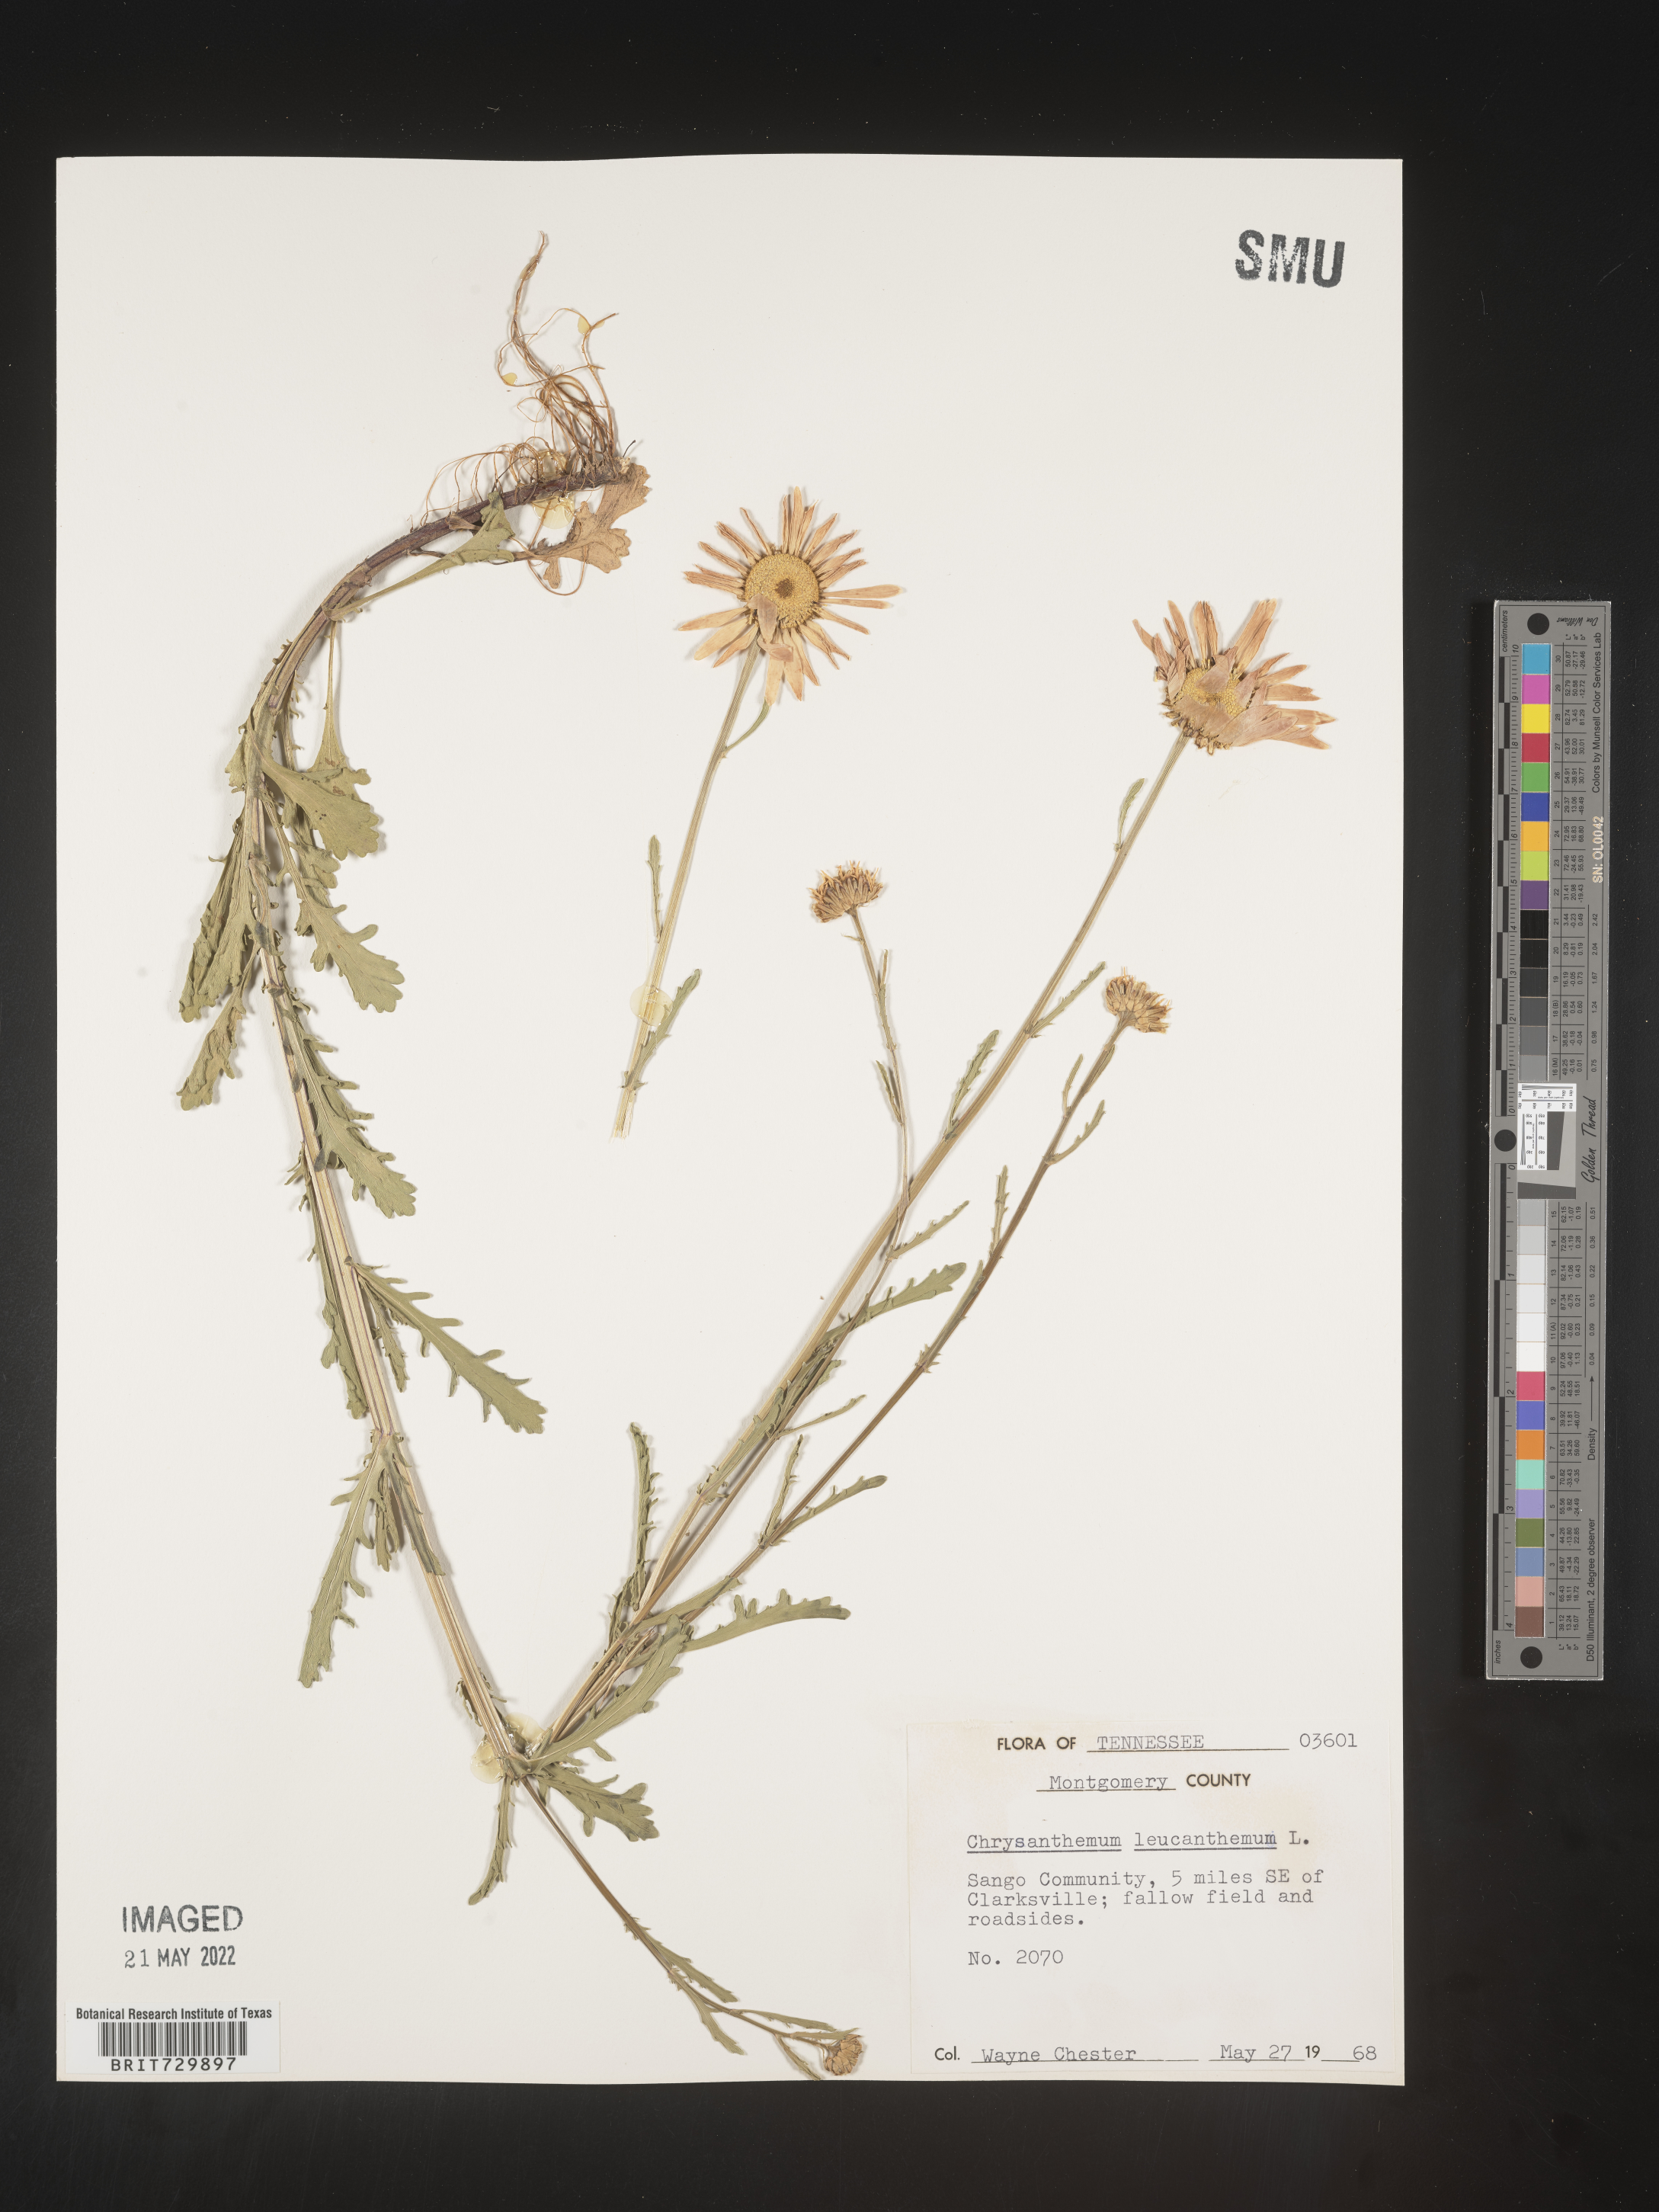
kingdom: Plantae
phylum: Tracheophyta
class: Magnoliopsida
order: Asterales
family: Asteraceae
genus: Leucanthemum
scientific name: Leucanthemum vulgare
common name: Oxeye daisy
